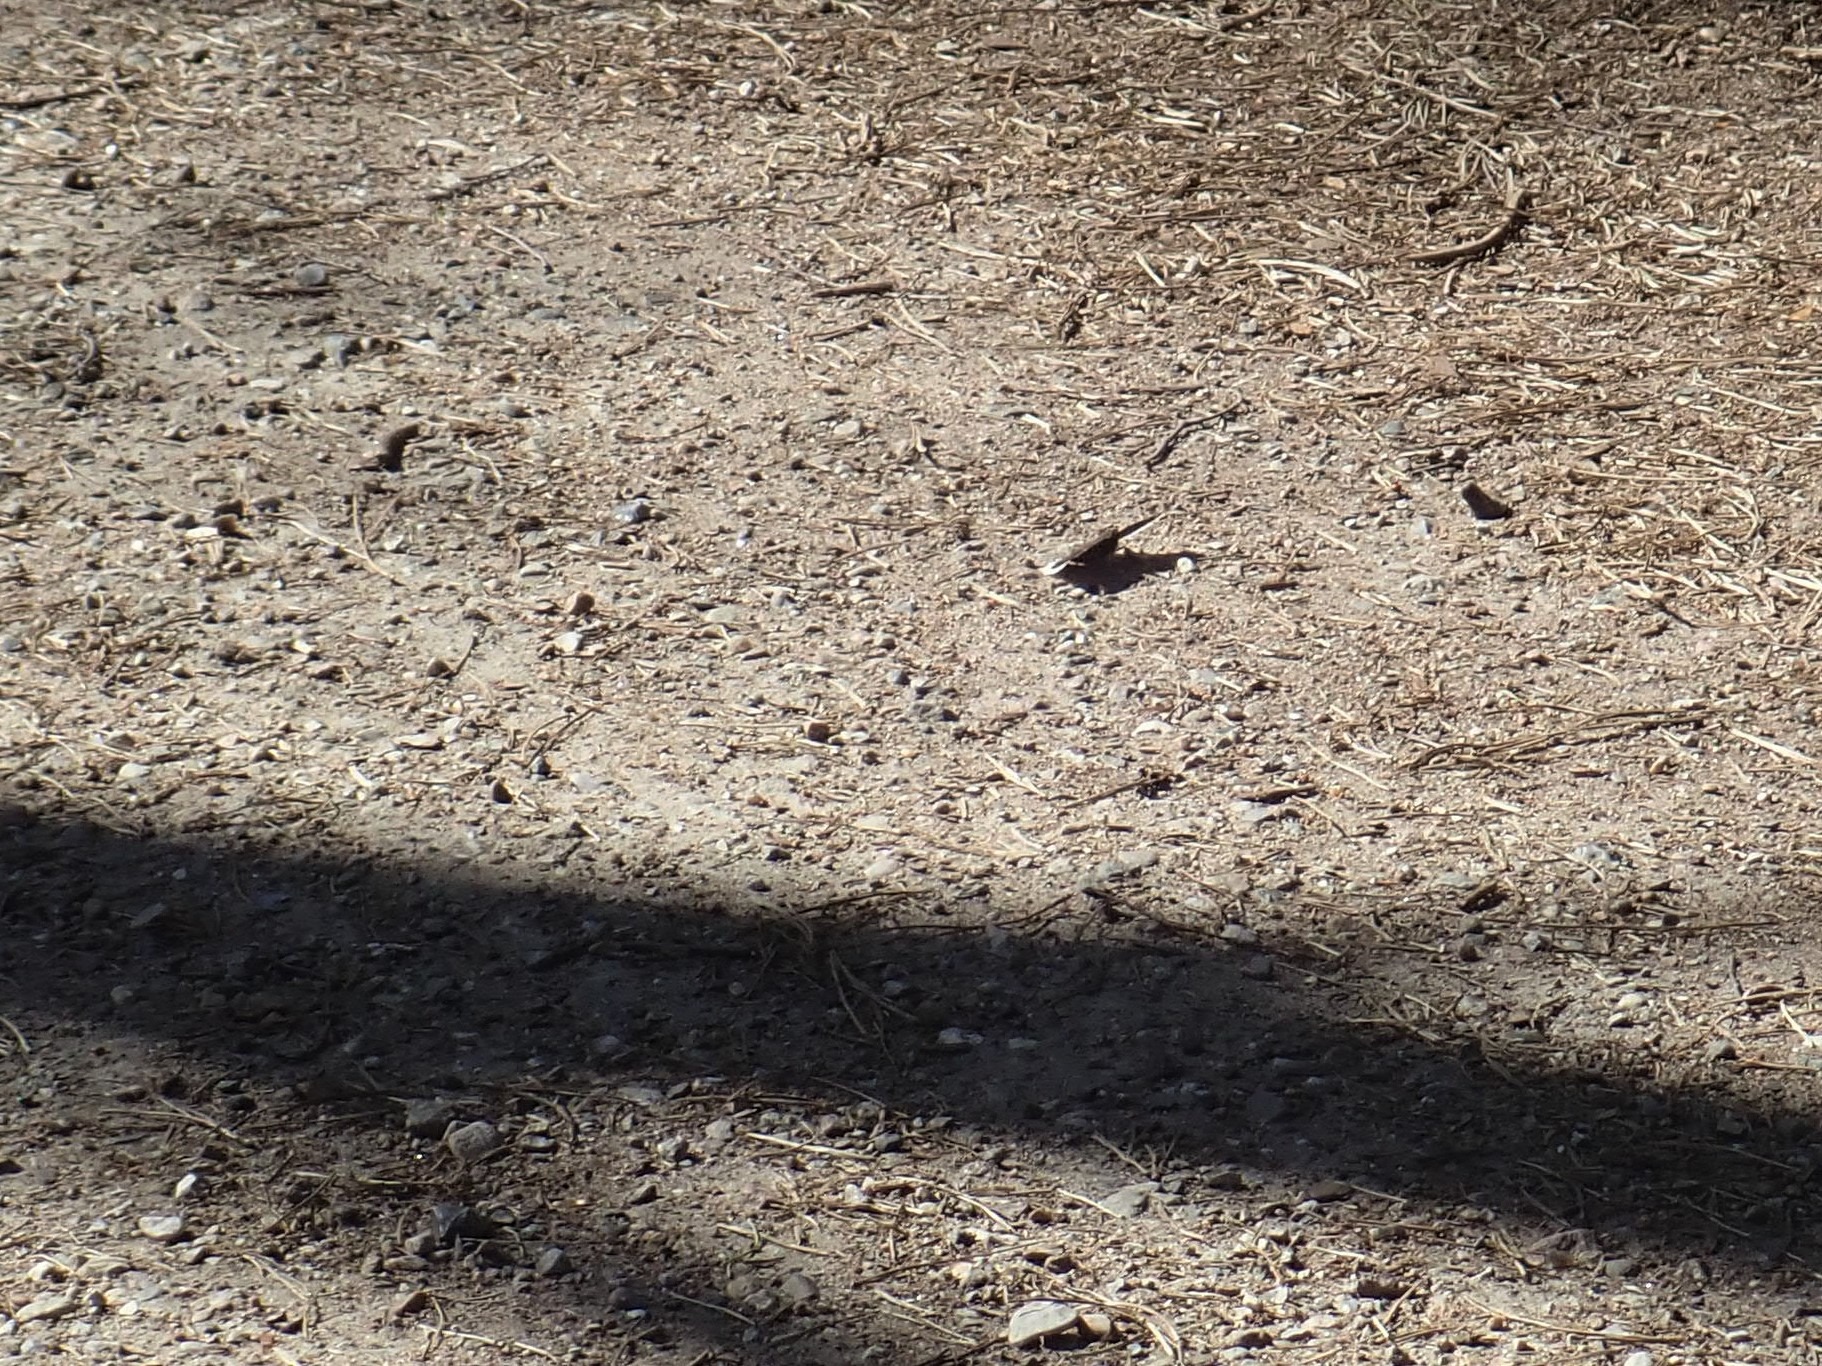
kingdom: Animalia
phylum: Arthropoda
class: Insecta
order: Lepidoptera
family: Nymphalidae
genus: Nymphalis
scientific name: Nymphalis antiopa
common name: Sørgekåbe
